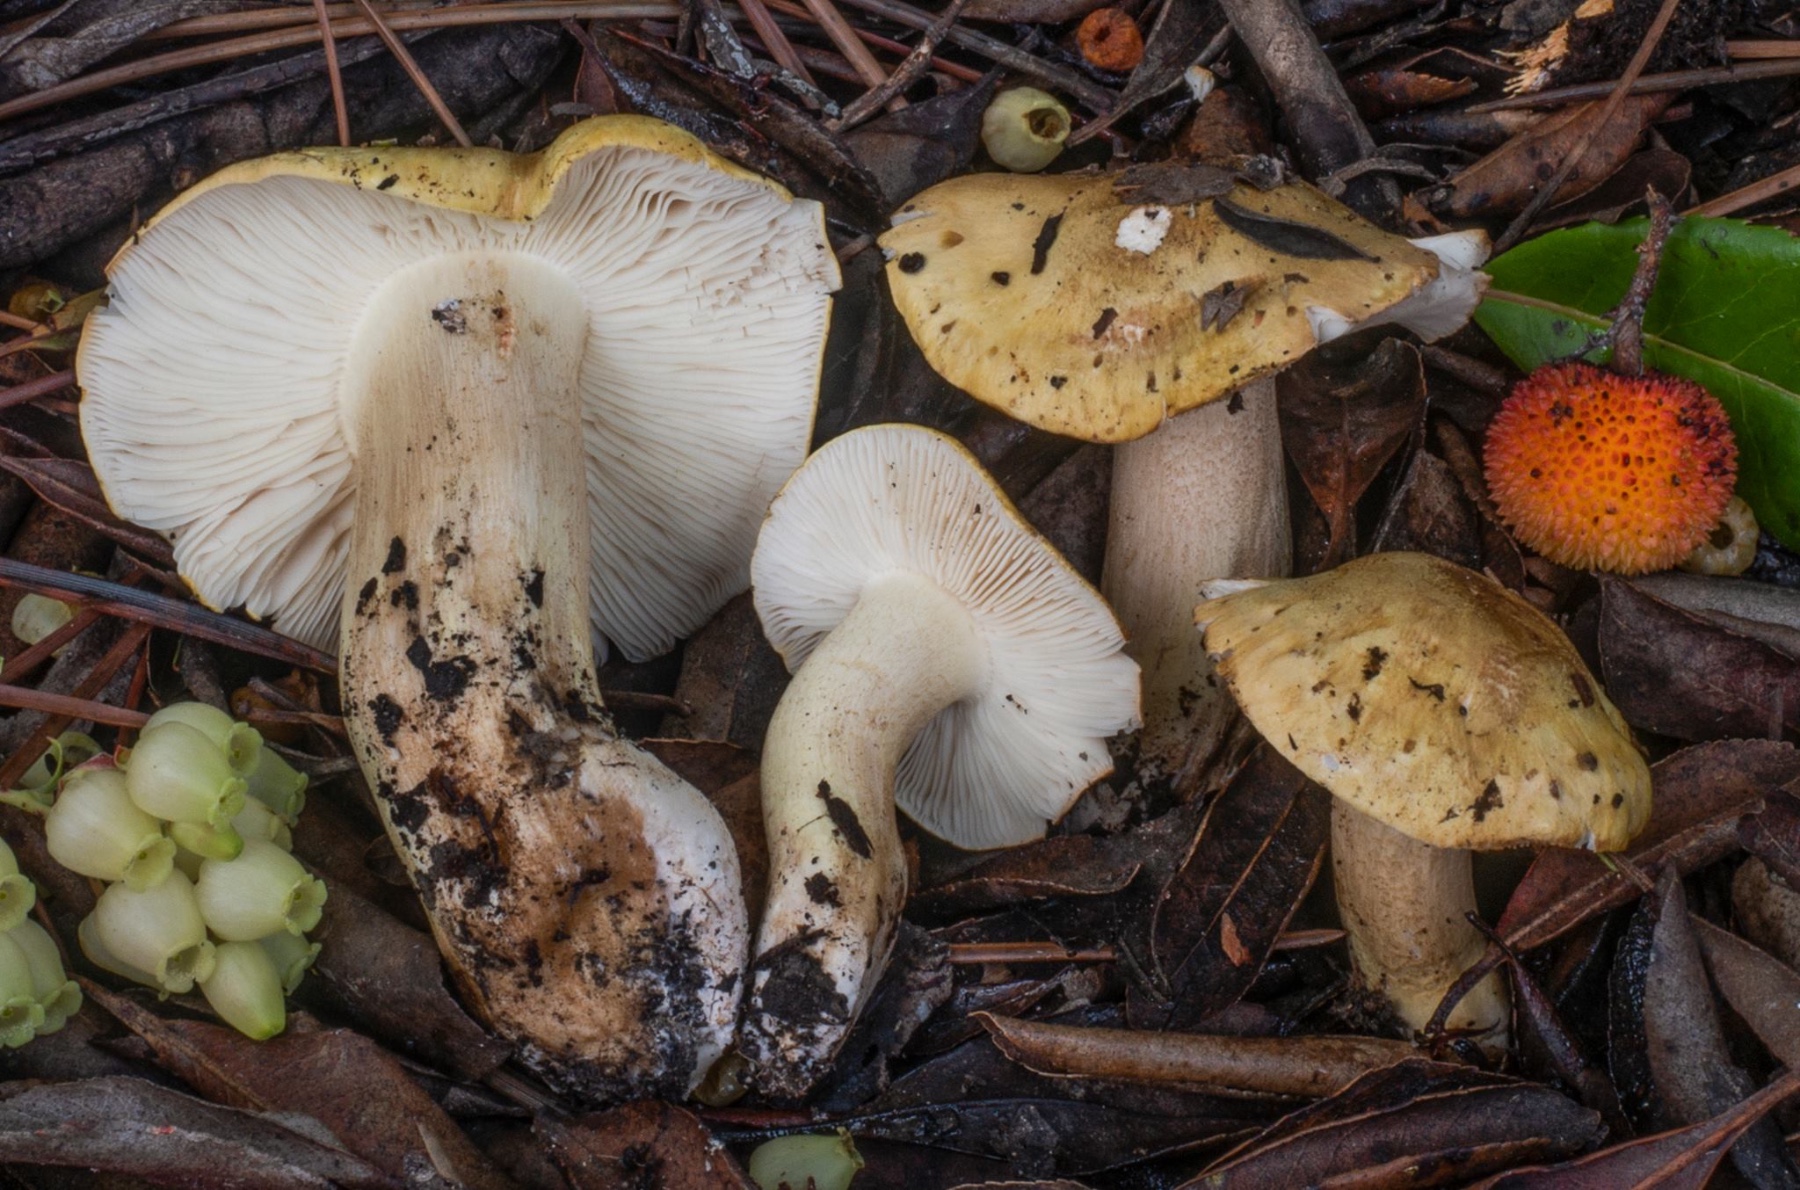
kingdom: Fungi
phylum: Basidiomycota
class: Agaricomycetes
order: Agaricales
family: Tricholomataceae
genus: Tricholoma
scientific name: Tricholoma joachimii
